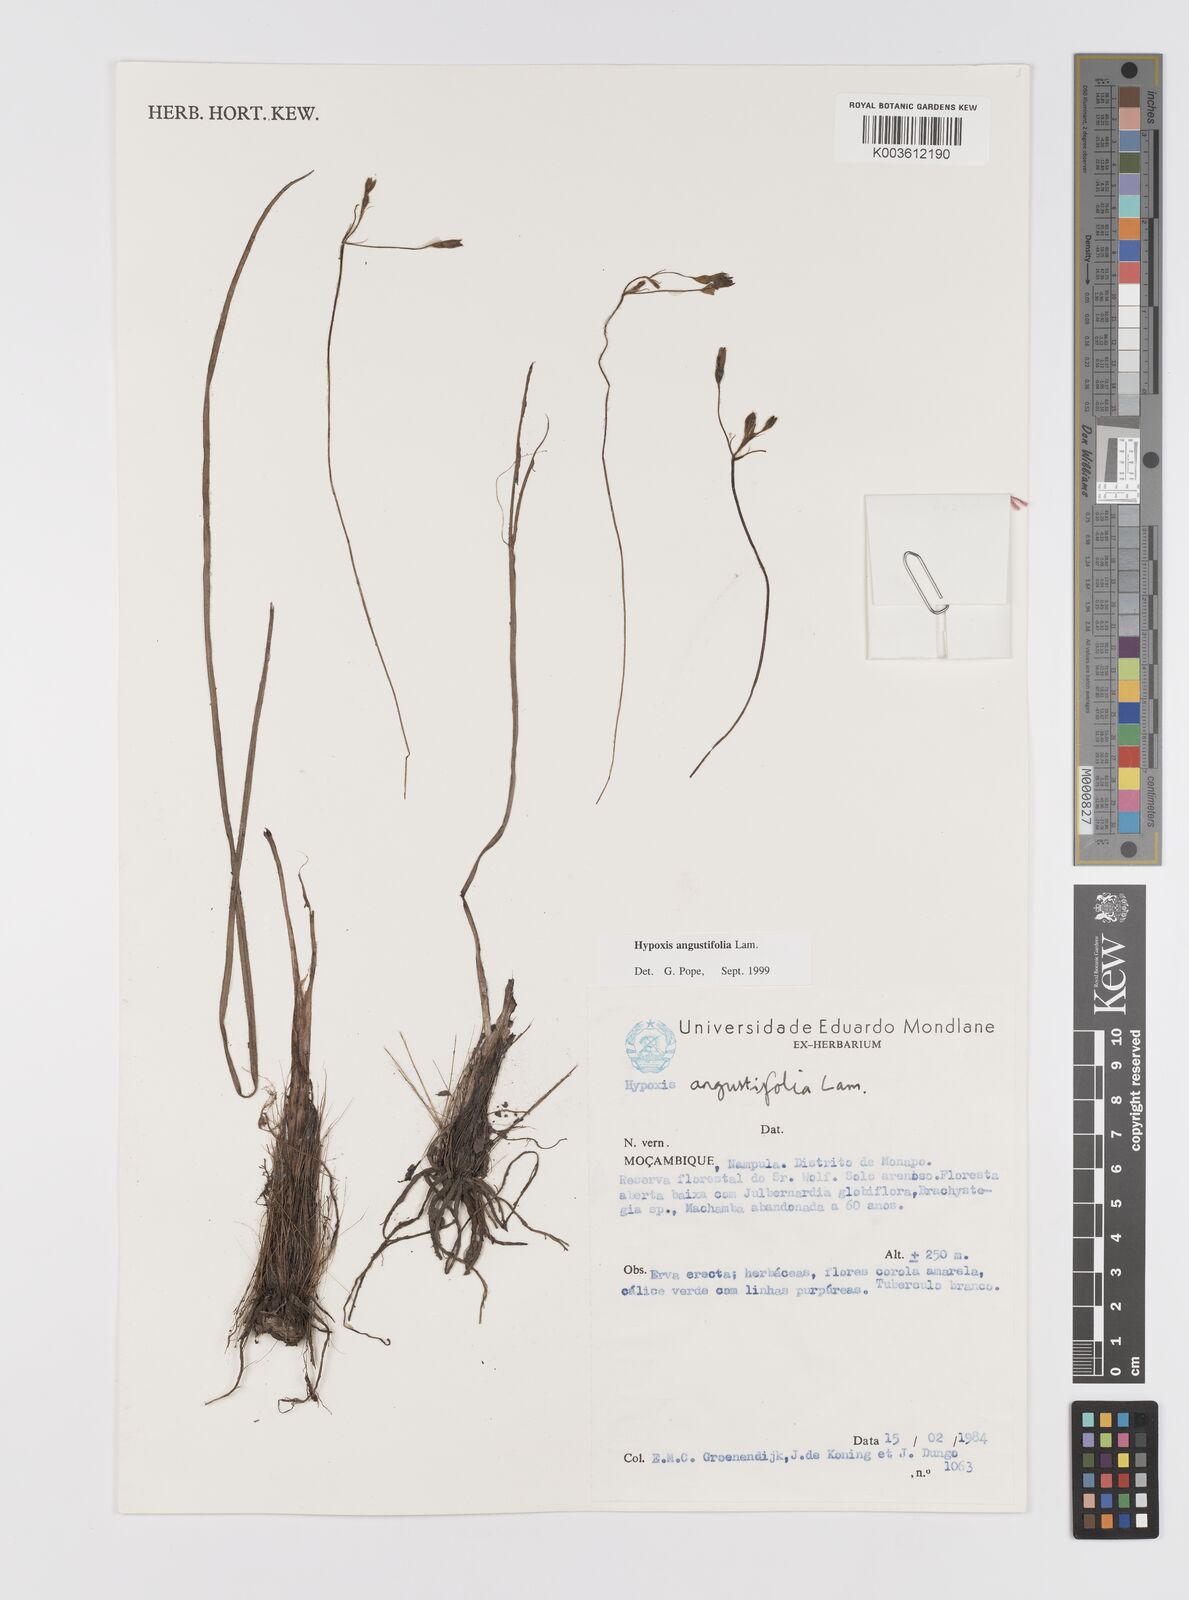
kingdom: Plantae
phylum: Tracheophyta
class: Liliopsida
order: Asparagales
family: Hypoxidaceae
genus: Hypoxis
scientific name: Hypoxis angustifolia
